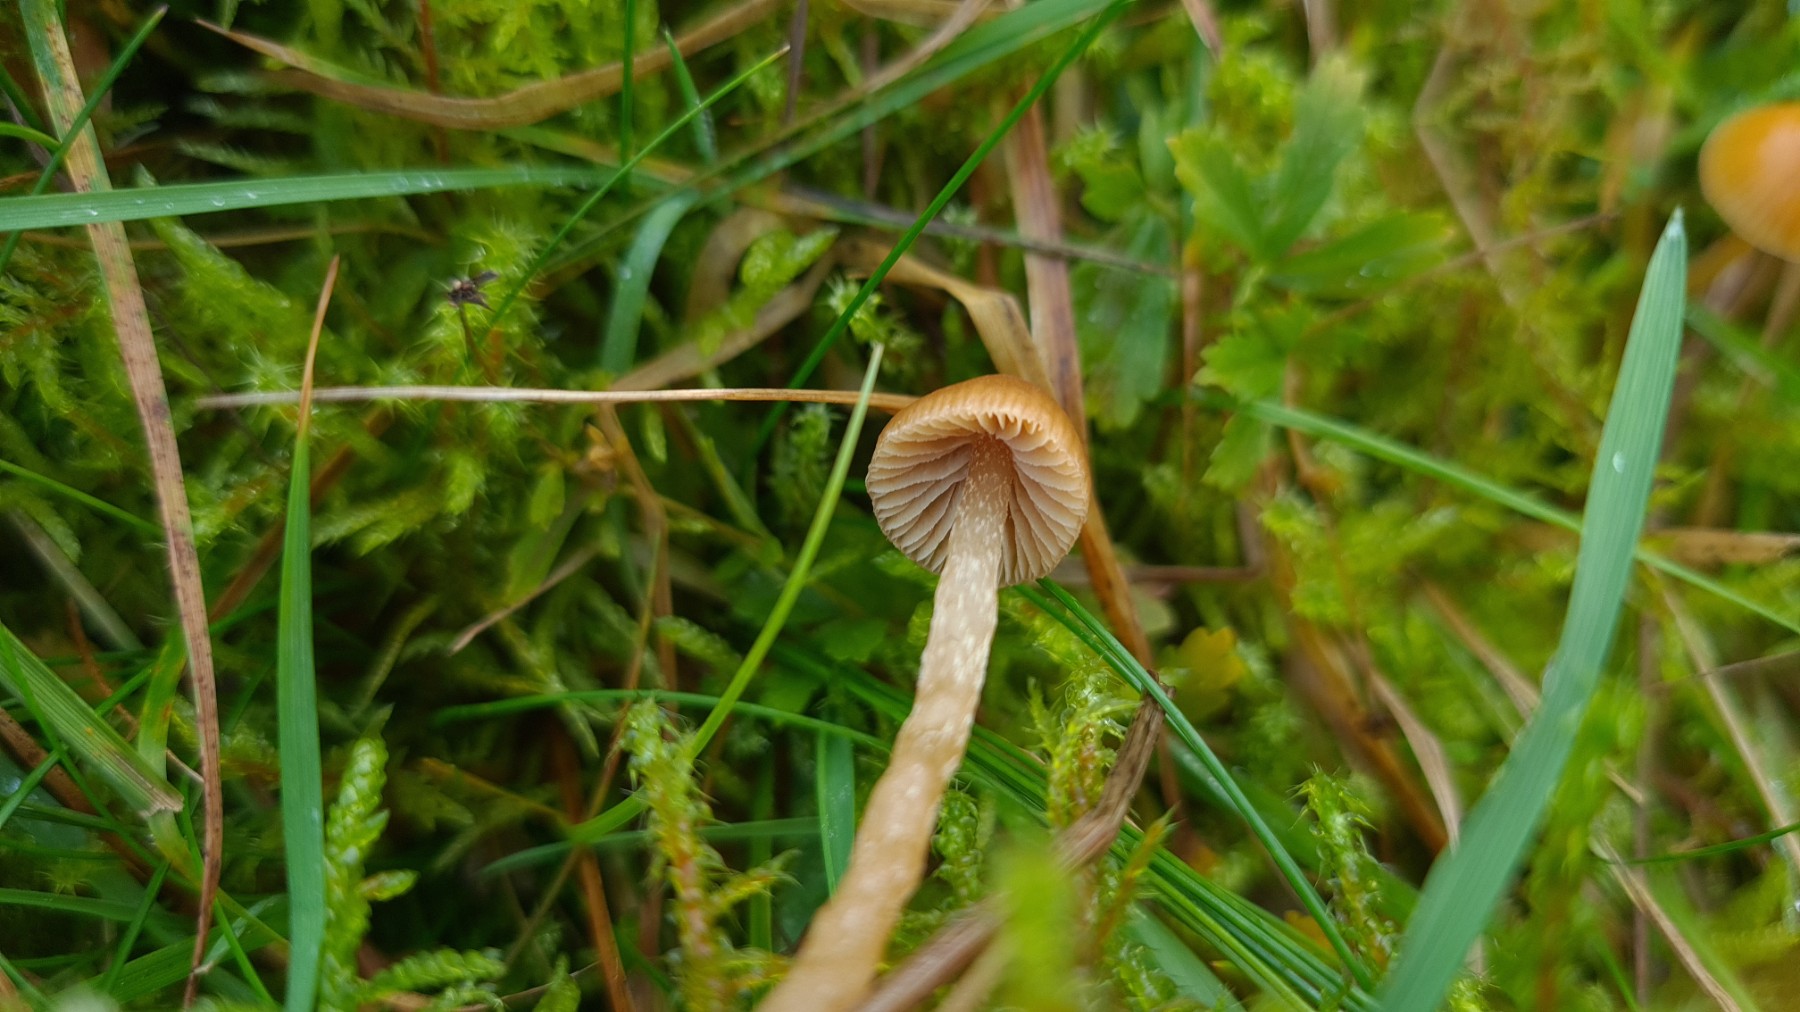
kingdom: Fungi
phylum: Basidiomycota
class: Agaricomycetes
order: Agaricales
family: Hymenogastraceae
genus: Galerina
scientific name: Galerina pumila
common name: honninggul hjelmhat
